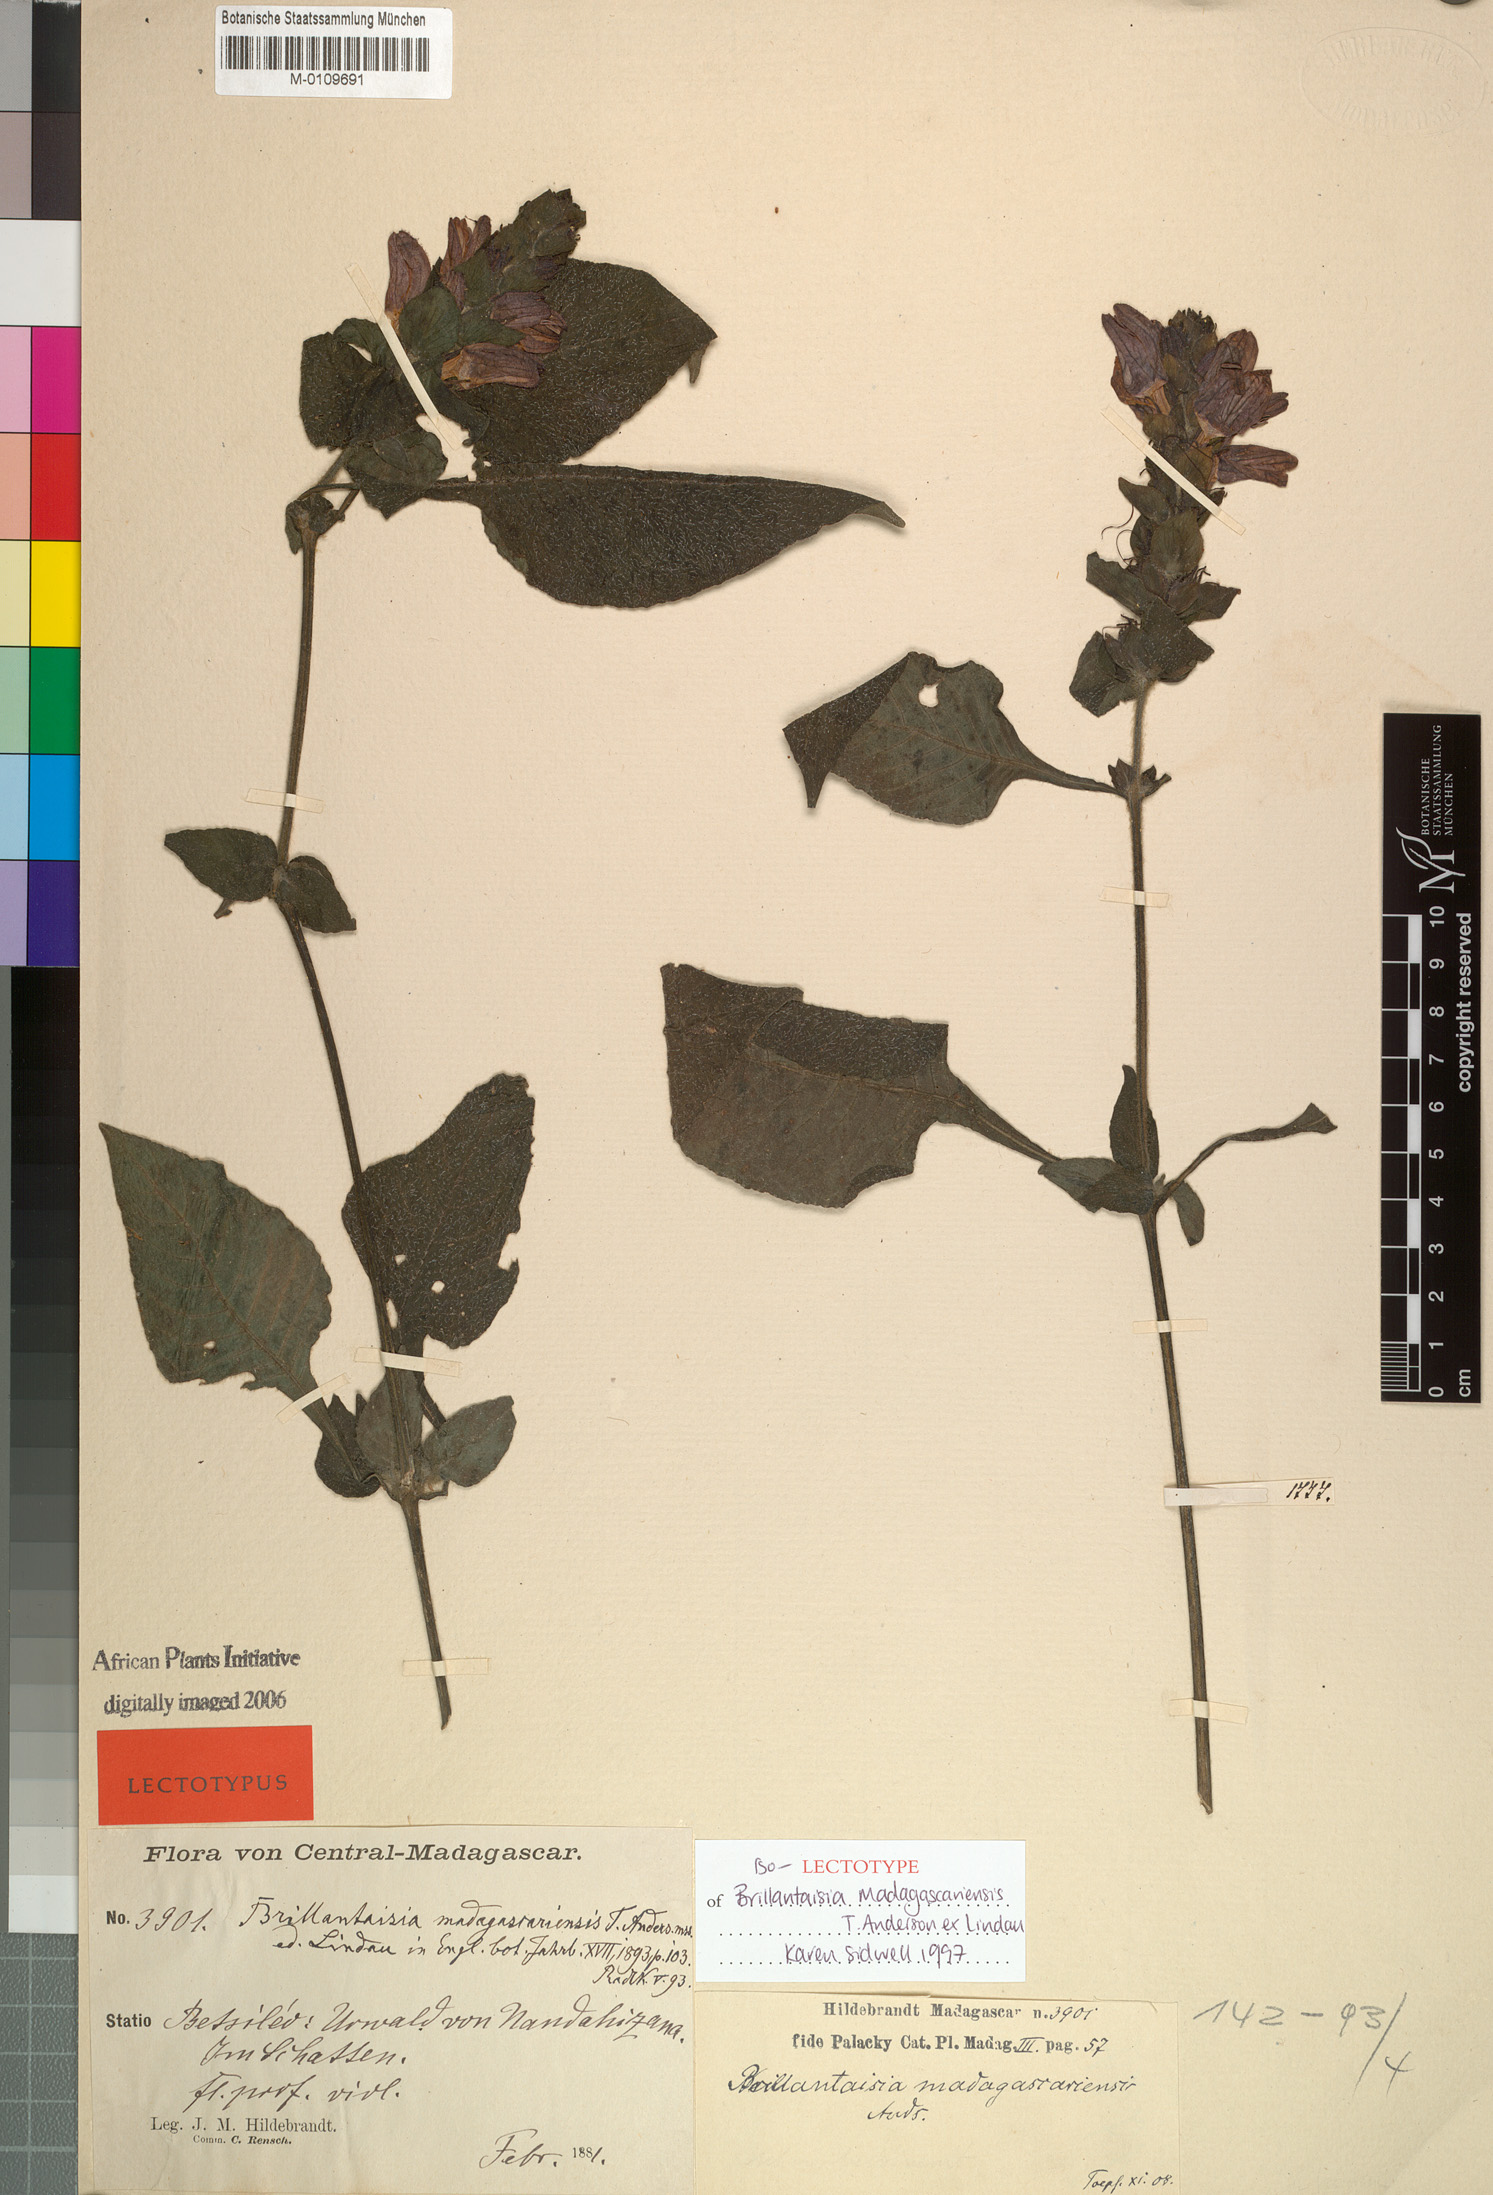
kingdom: Plantae
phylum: Tracheophyta
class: Magnoliopsida
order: Lamiales
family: Acanthaceae
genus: Brillantaisia
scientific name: Brillantaisia madagascariensis
